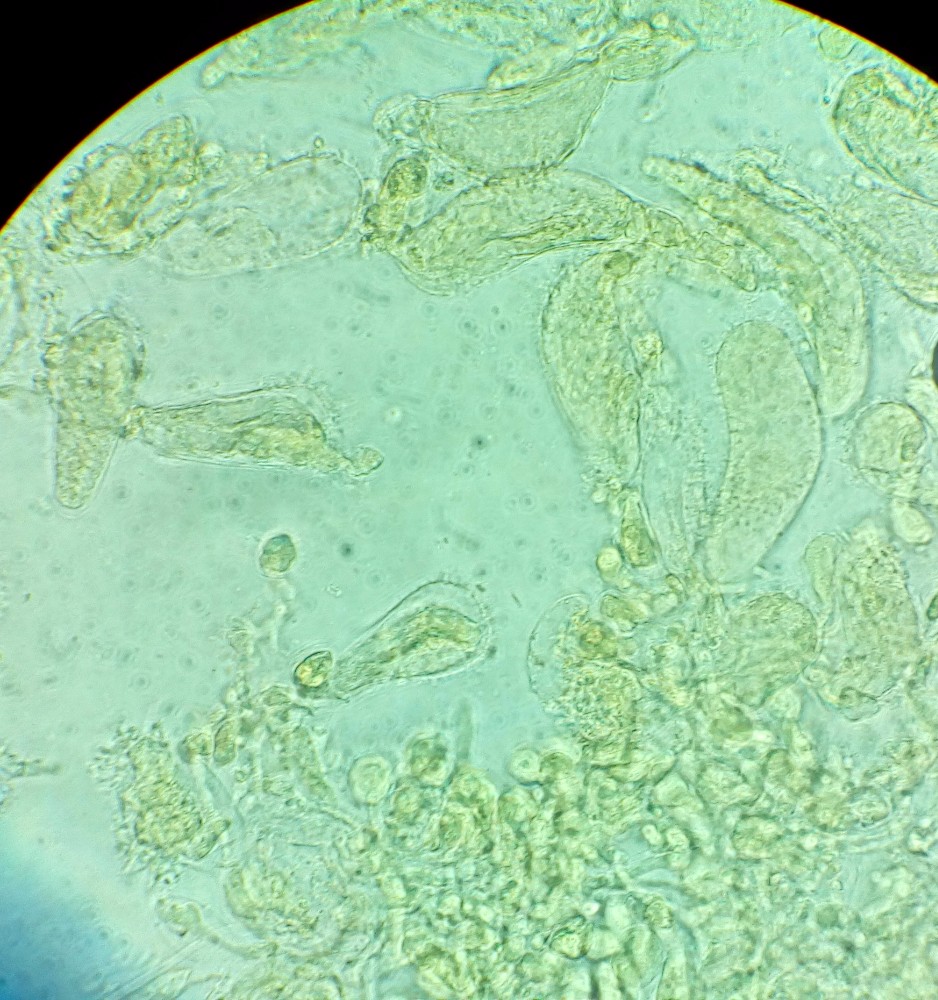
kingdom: Fungi
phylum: Basidiomycota
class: Agaricomycetes
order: Agaricales
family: Mycenaceae
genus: Mycena
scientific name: Mycena flavescens
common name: grågul huesvamp
